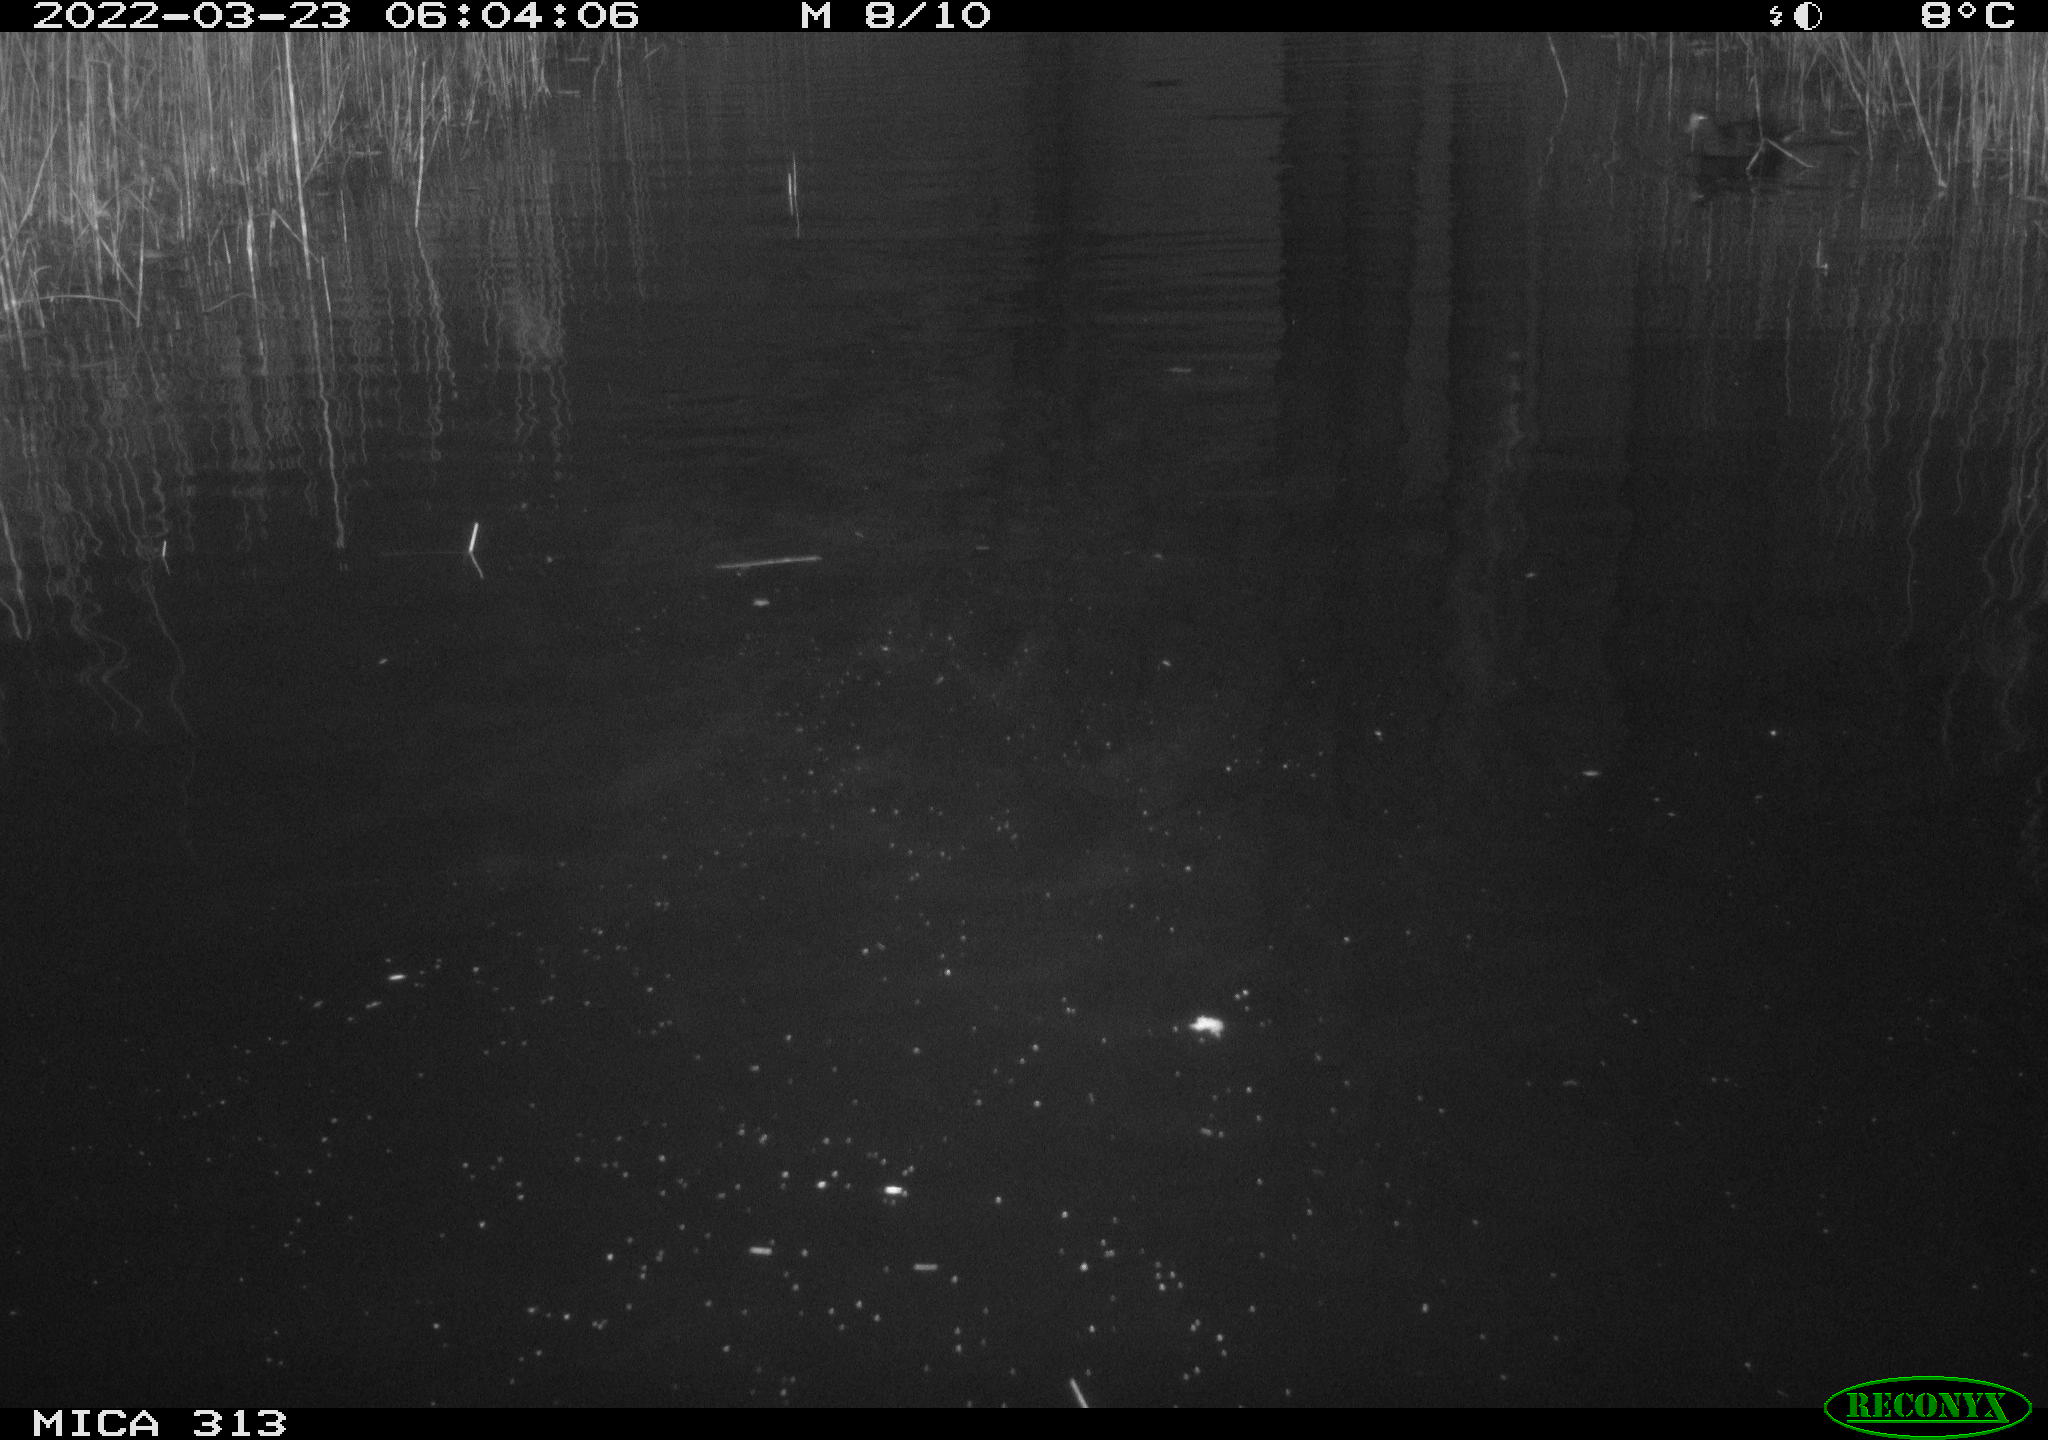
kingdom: Animalia
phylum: Chordata
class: Aves
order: Anseriformes
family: Anatidae
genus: Mareca
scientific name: Mareca strepera
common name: Gadwall
